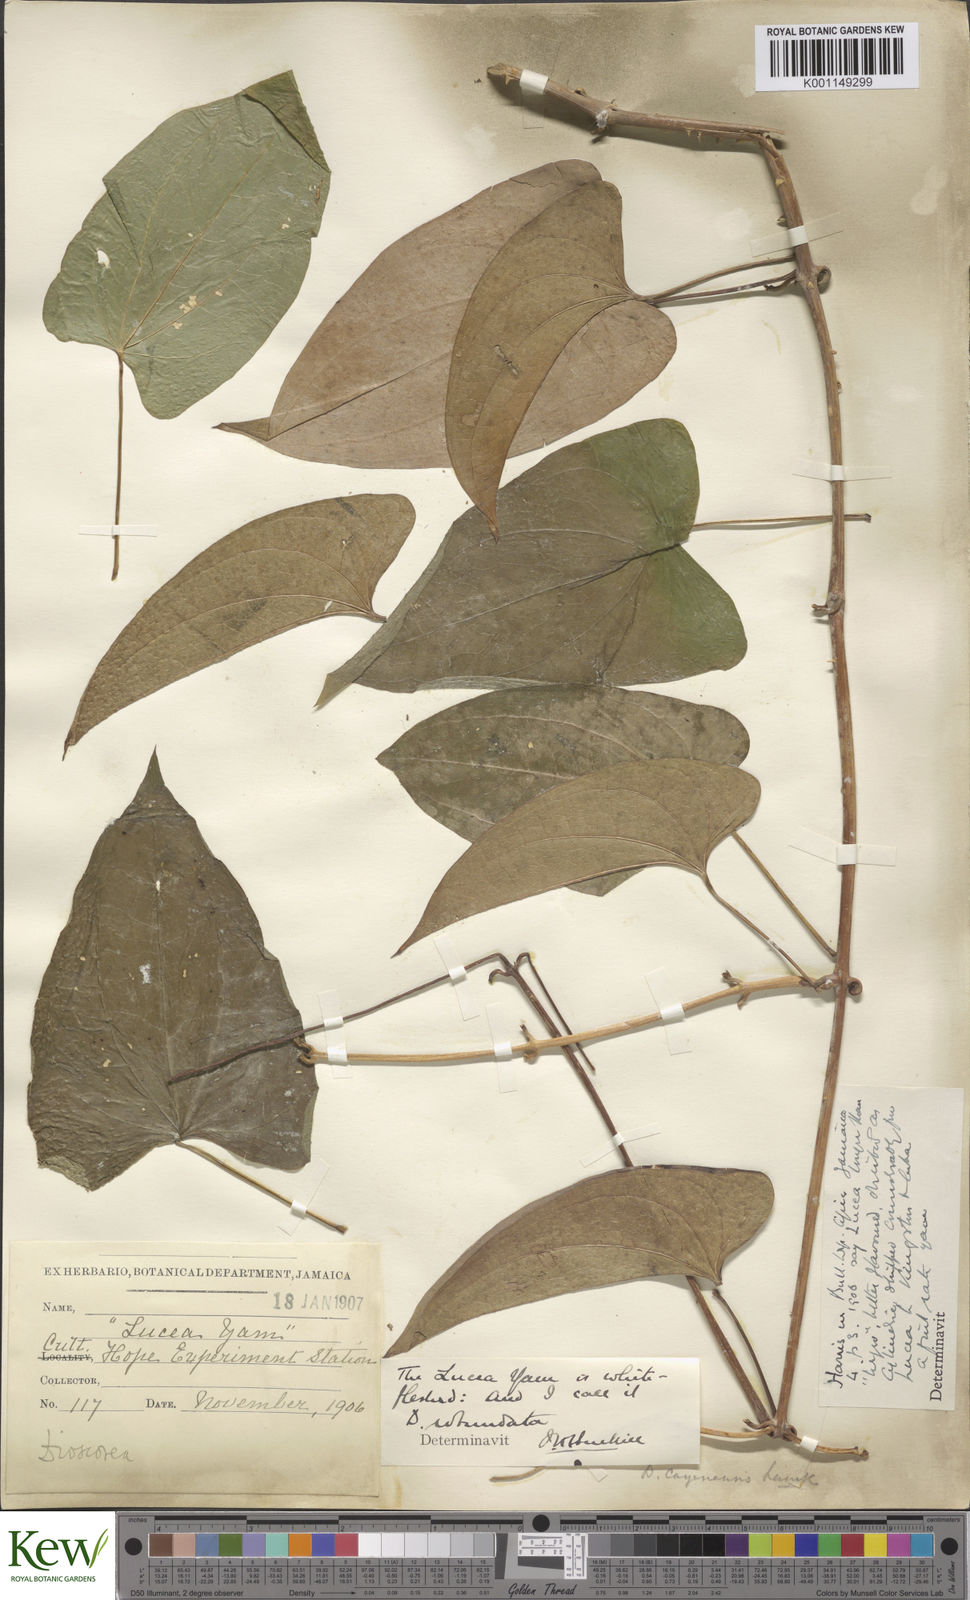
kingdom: Plantae
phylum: Tracheophyta
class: Liliopsida
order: Dioscoreales
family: Dioscoreaceae
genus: Dioscorea
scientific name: Dioscorea cayenensis
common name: Attoto yam
